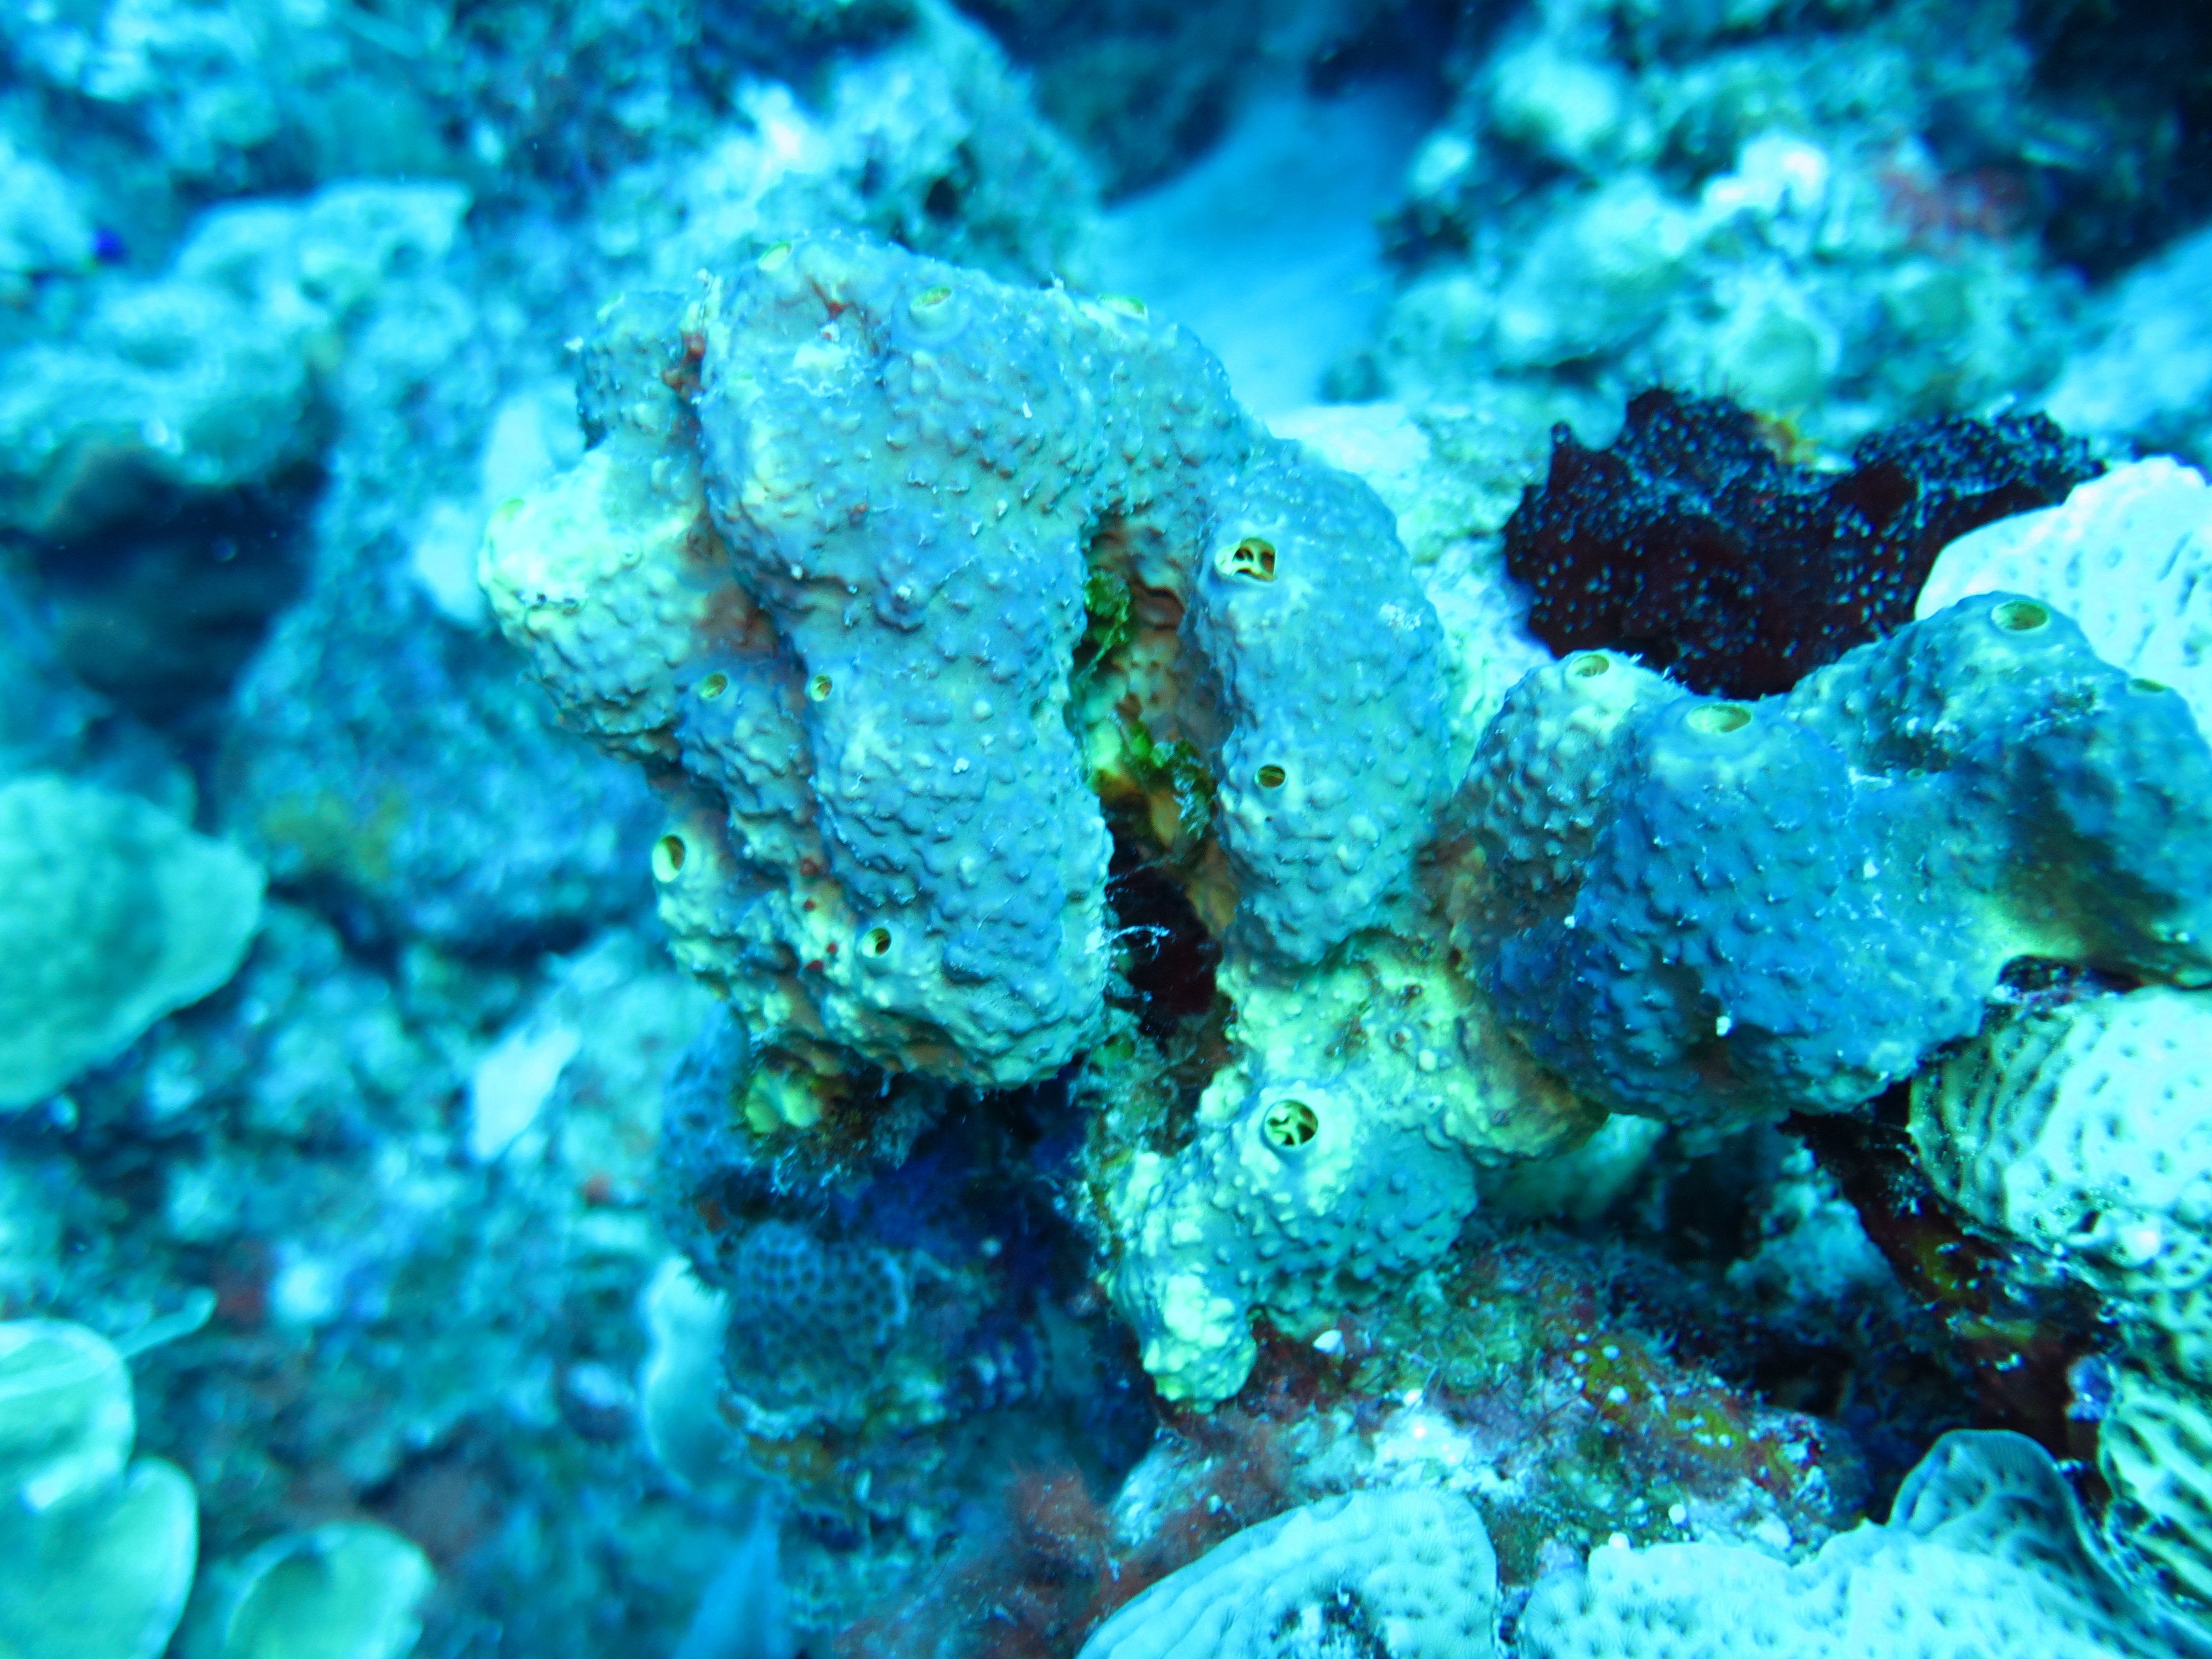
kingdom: Animalia
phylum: Porifera
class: Demospongiae
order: Verongiida
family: Aplysinidae
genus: Aiolochroia
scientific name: Aiolochroia crassa
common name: Branching tube sponge
